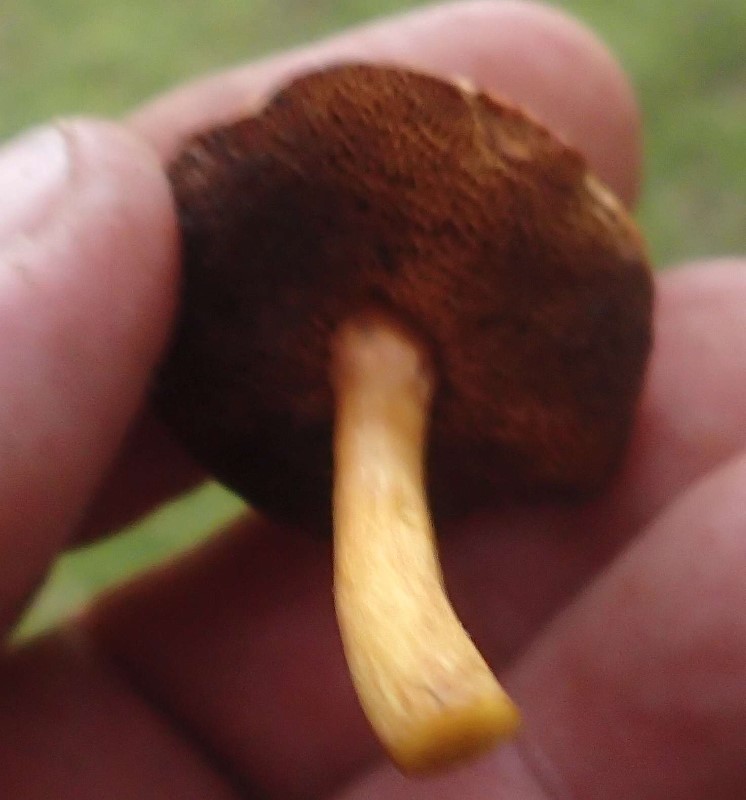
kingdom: Fungi
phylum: Basidiomycota
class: Agaricomycetes
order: Boletales
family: Boletaceae
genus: Chalciporus
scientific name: Chalciporus piperatus
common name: peberrørhat
